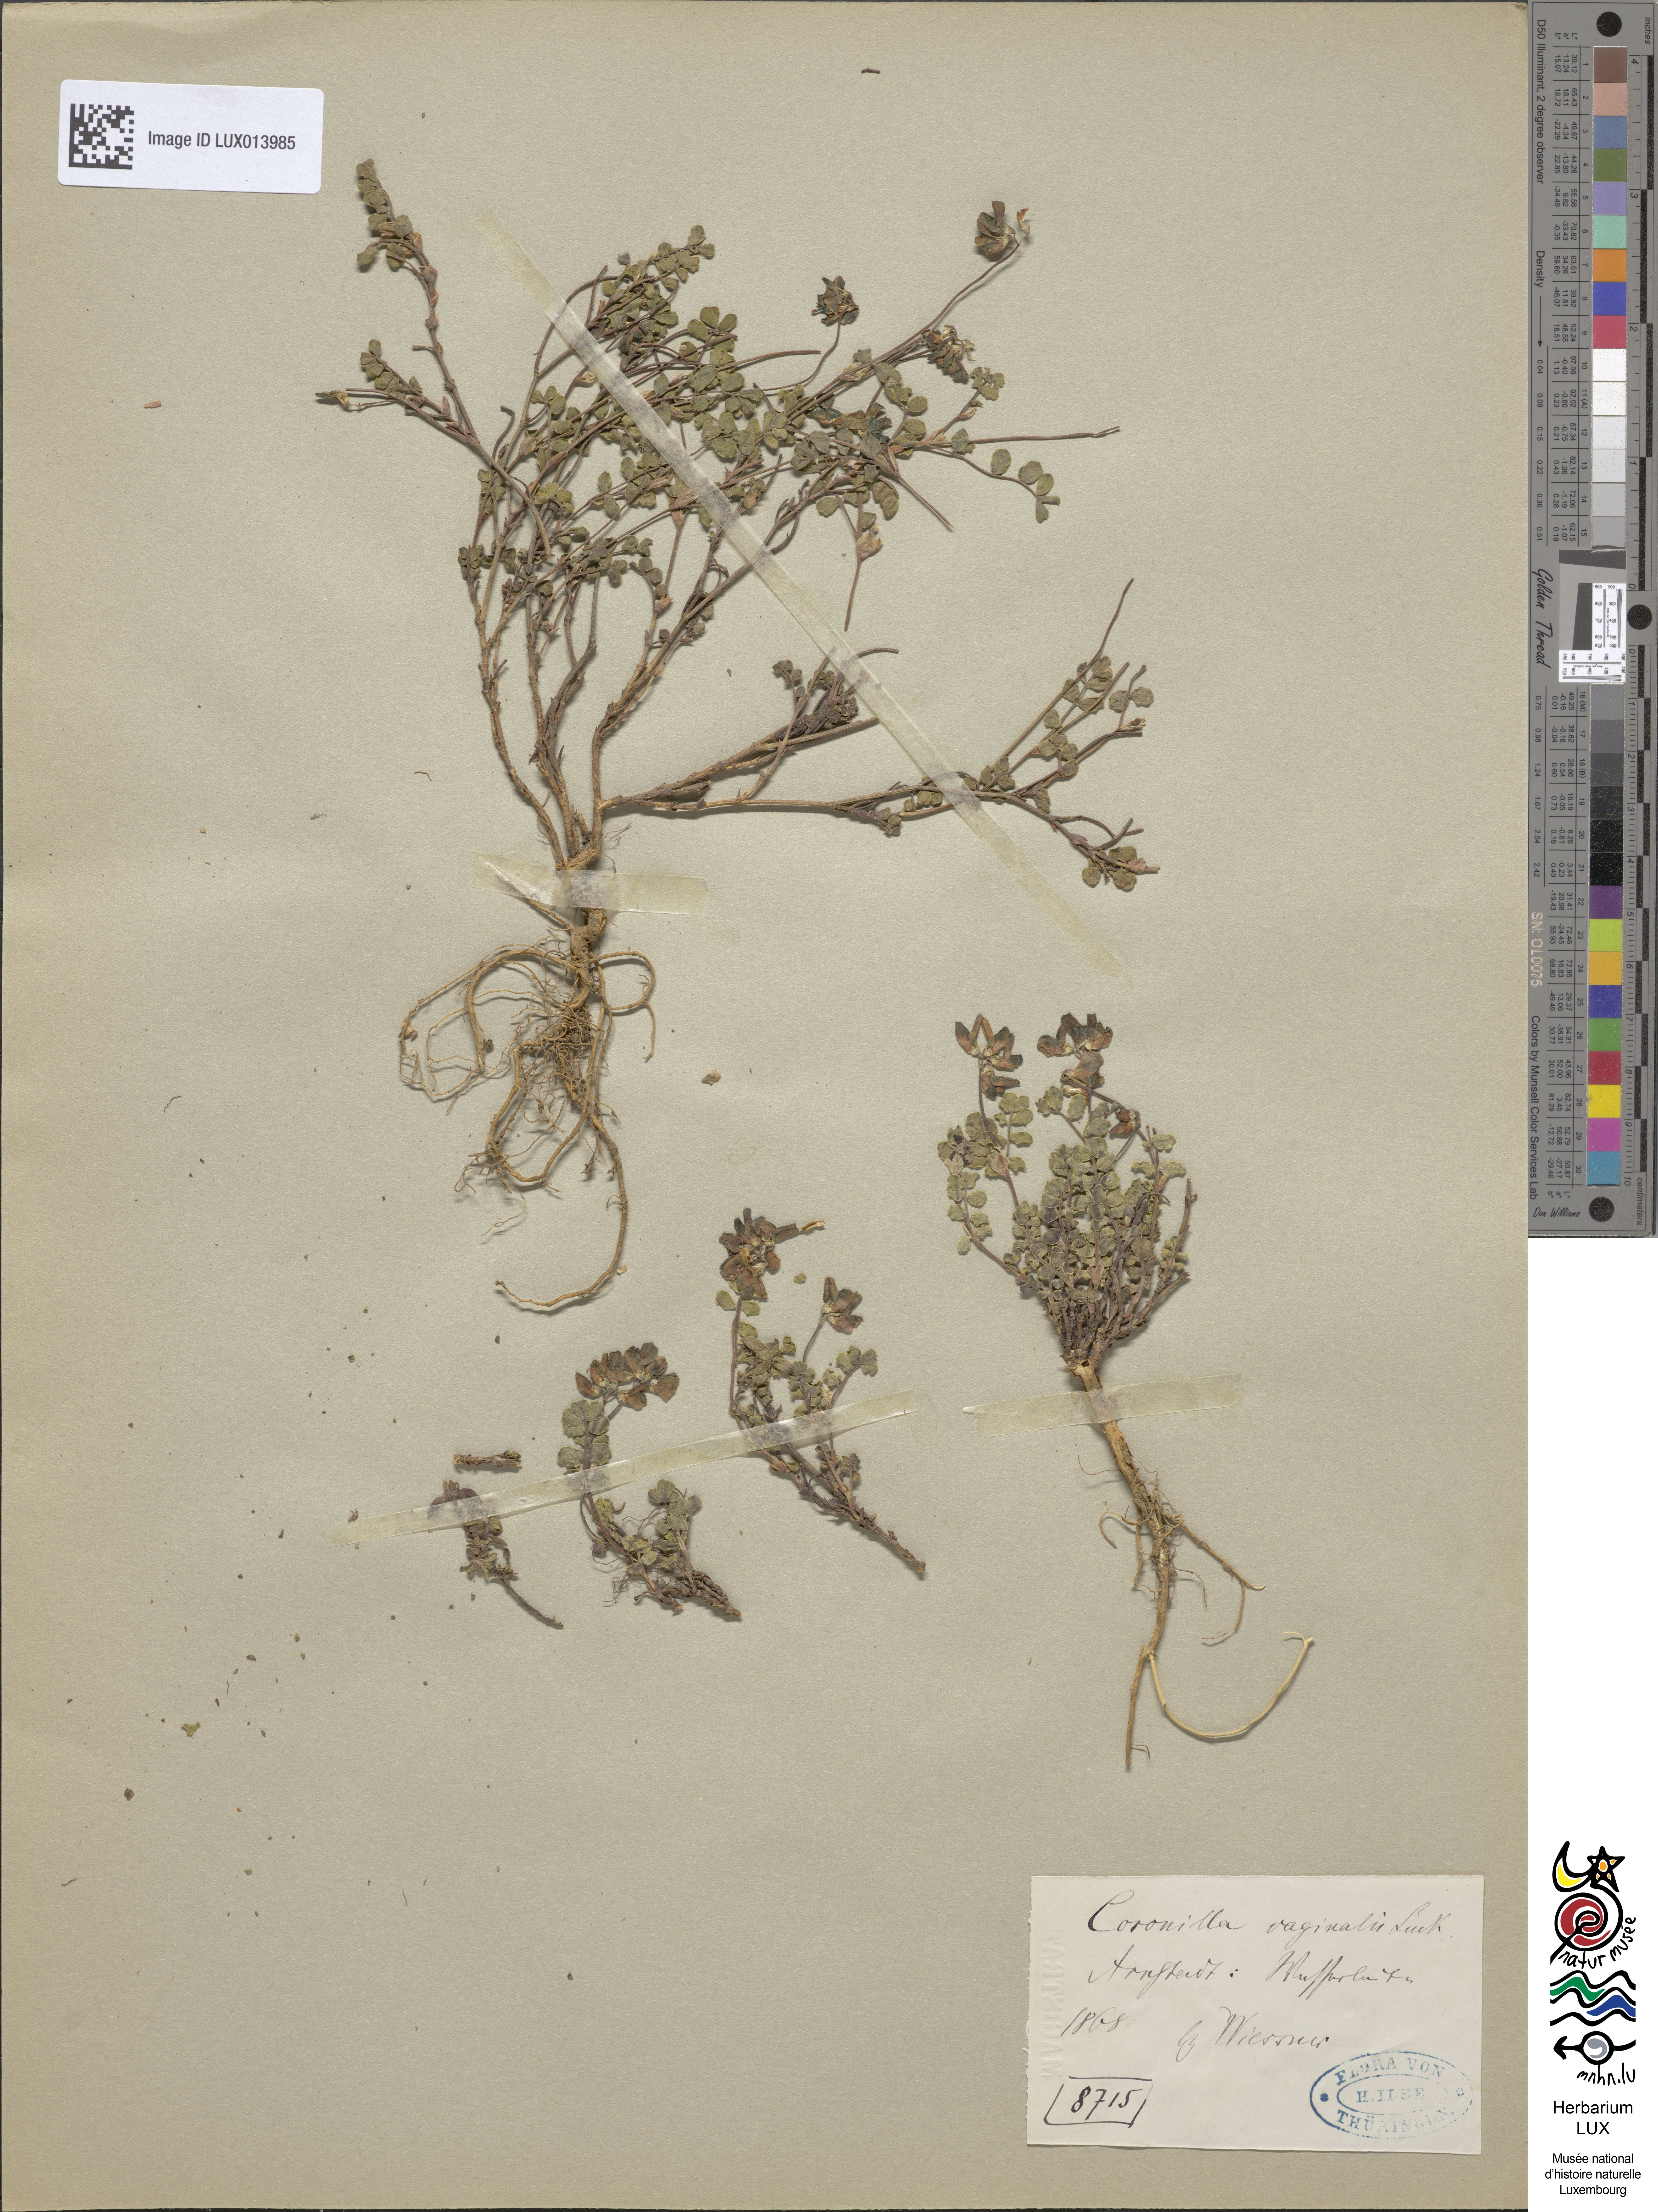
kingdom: Plantae
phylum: Tracheophyta
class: Magnoliopsida
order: Fabales
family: Fabaceae
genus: Coronilla
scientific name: Coronilla vaginalis
